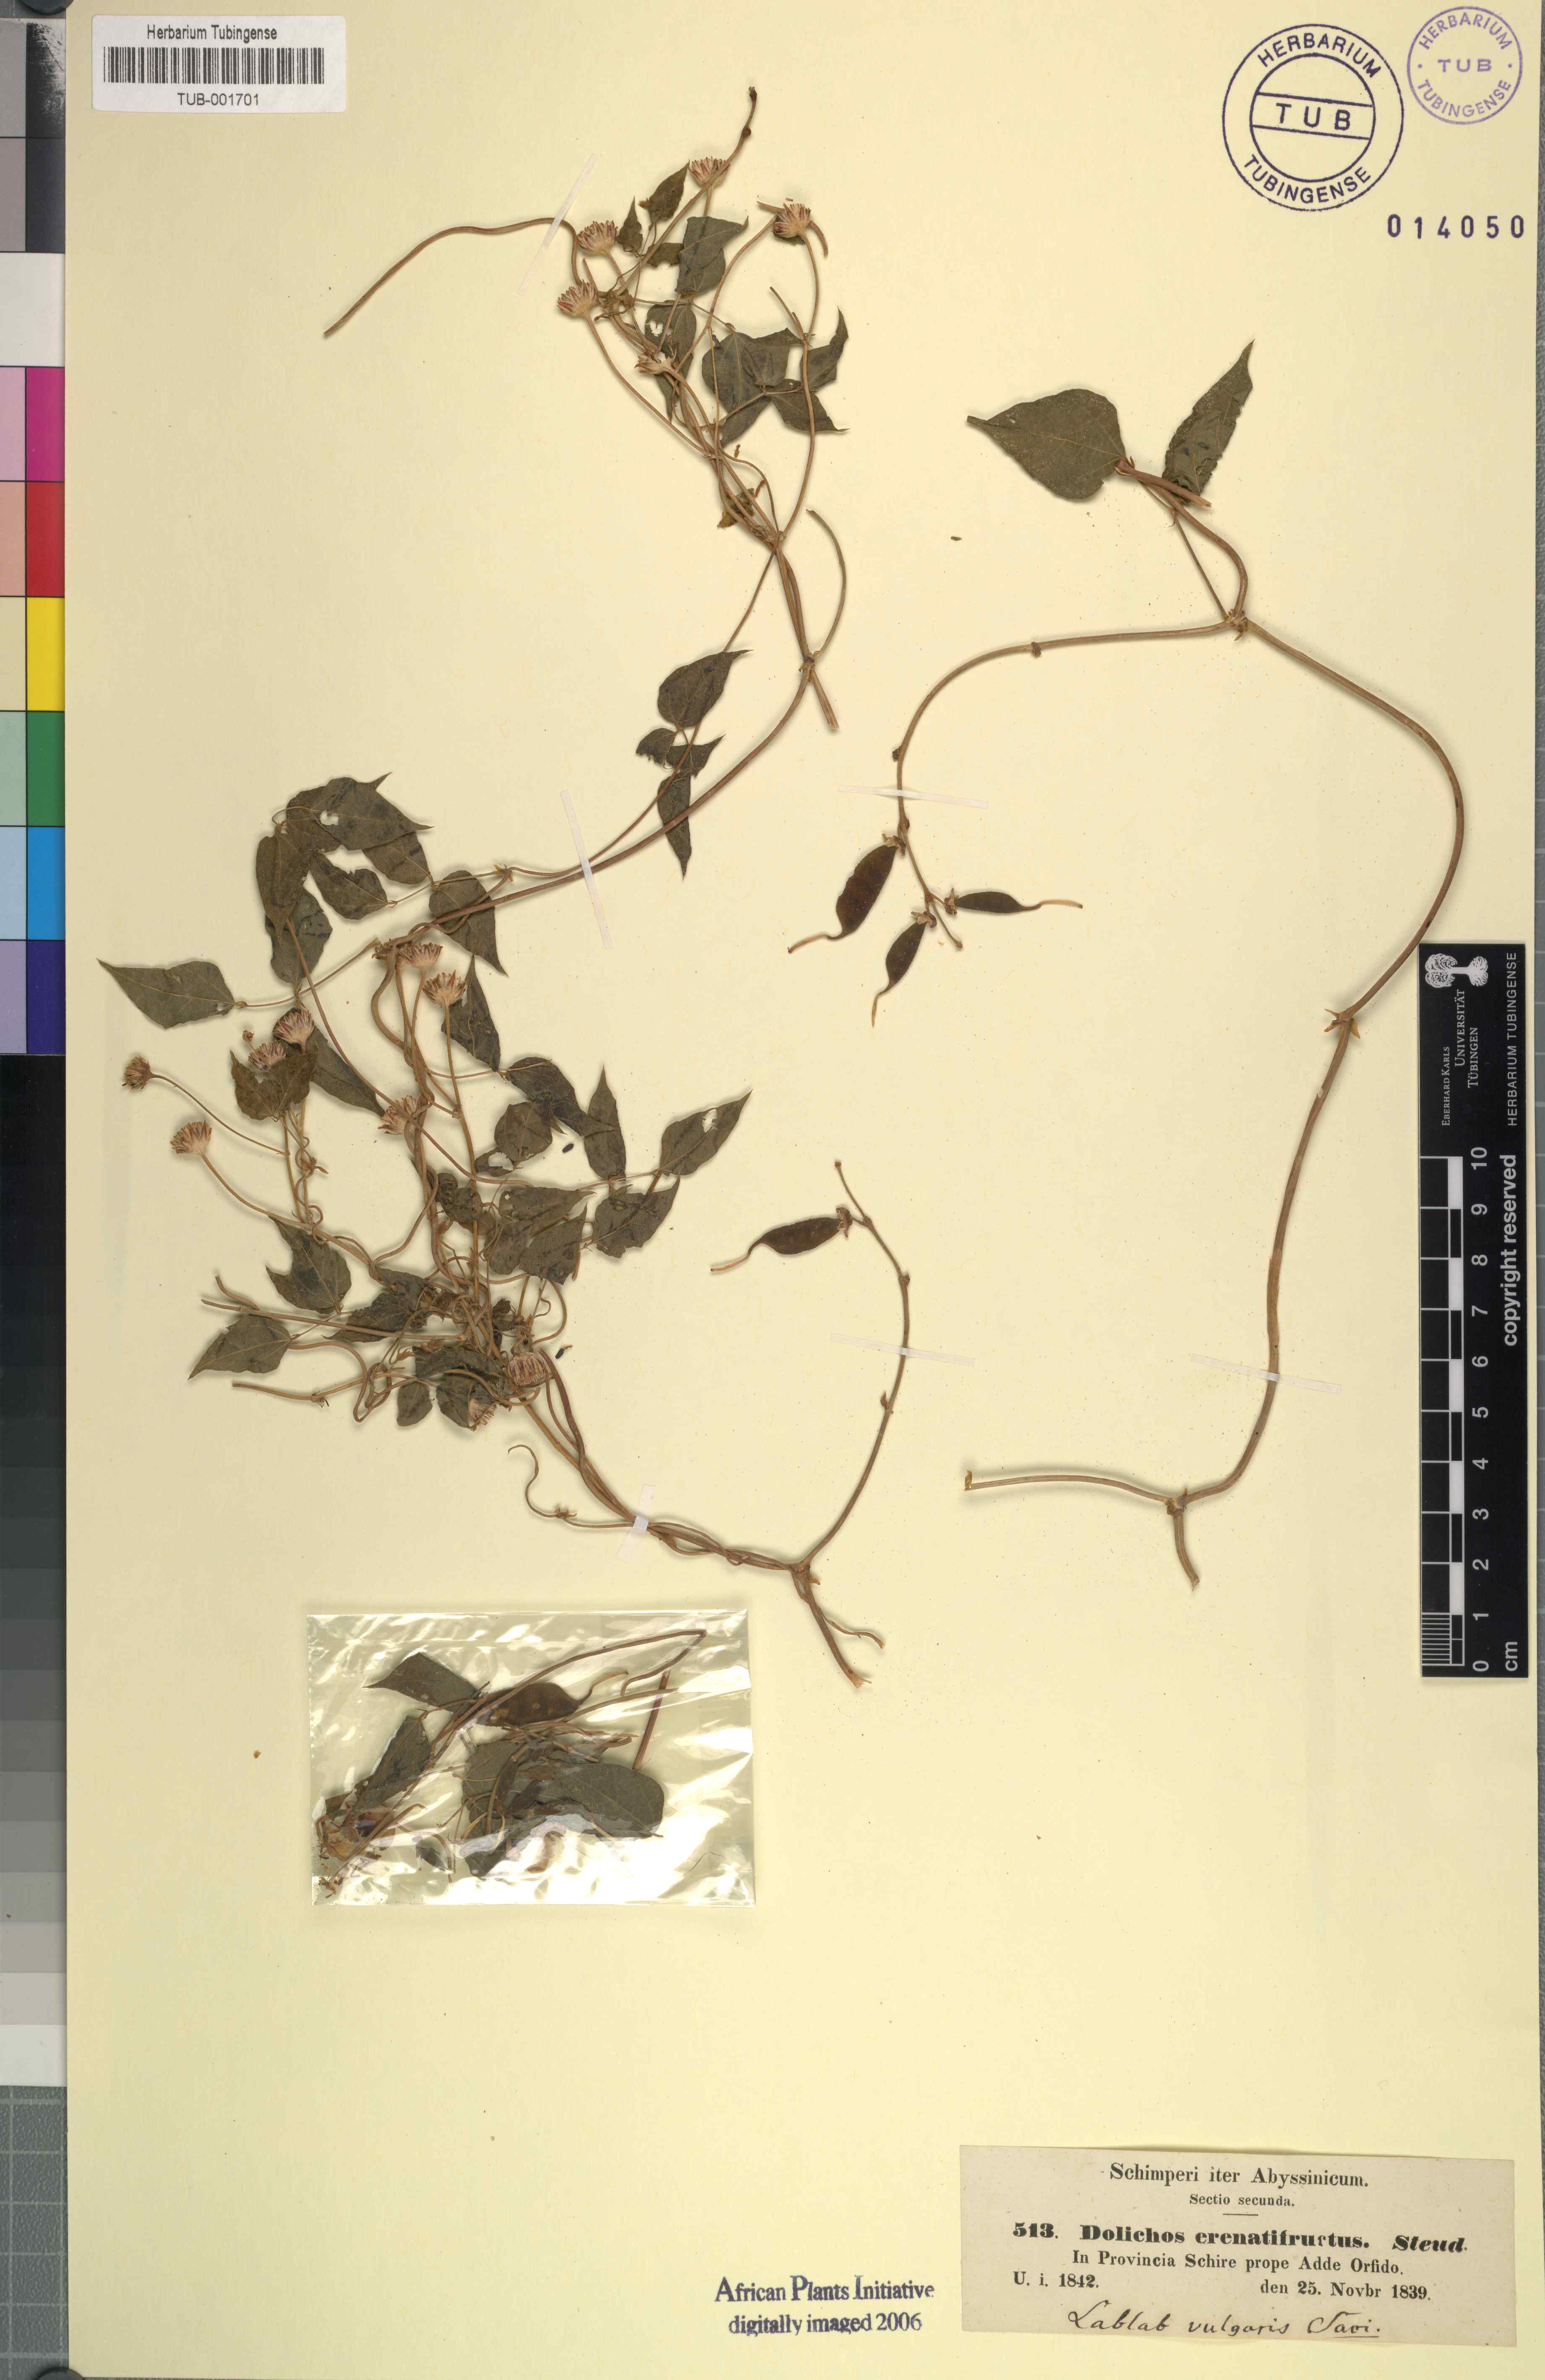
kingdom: Plantae
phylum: Tracheophyta
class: Magnoliopsida
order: Fabales
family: Fabaceae
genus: Lablab
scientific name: Lablab purpureus
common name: Lablab-bean
